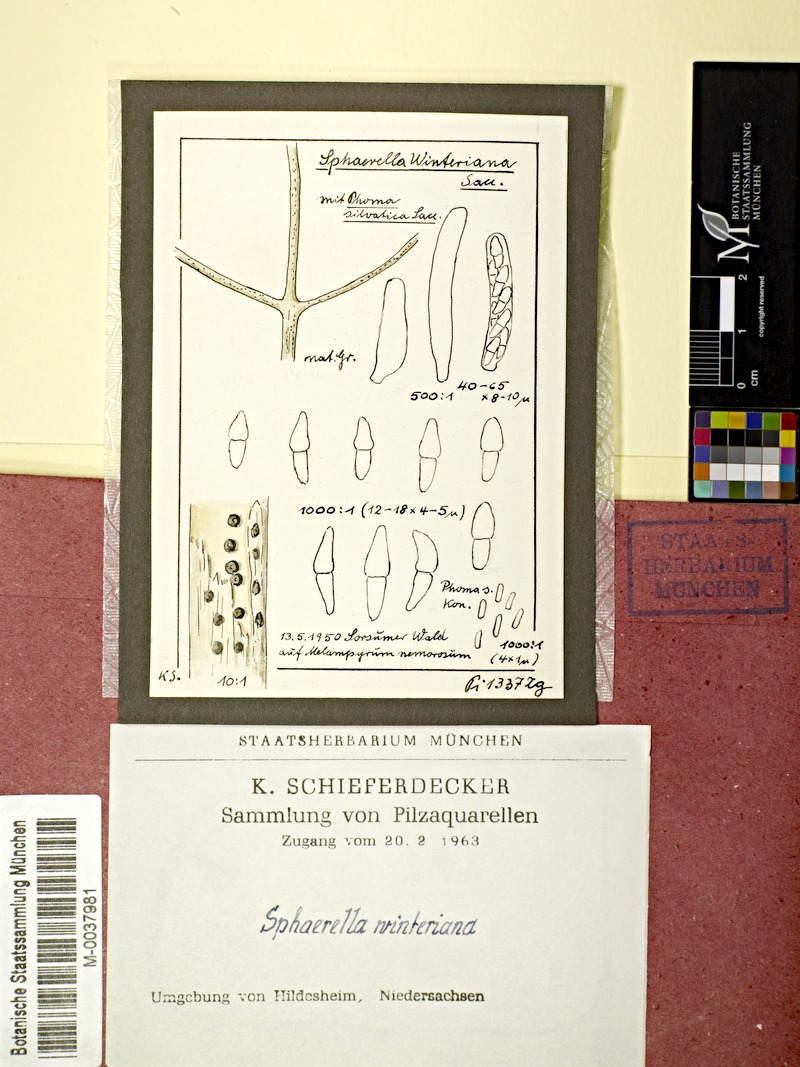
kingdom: Fungi
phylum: Ascomycota
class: Dothideomycetes
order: Pleosporales
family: Didymellaceae
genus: Didymella
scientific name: Didymella winteriana
